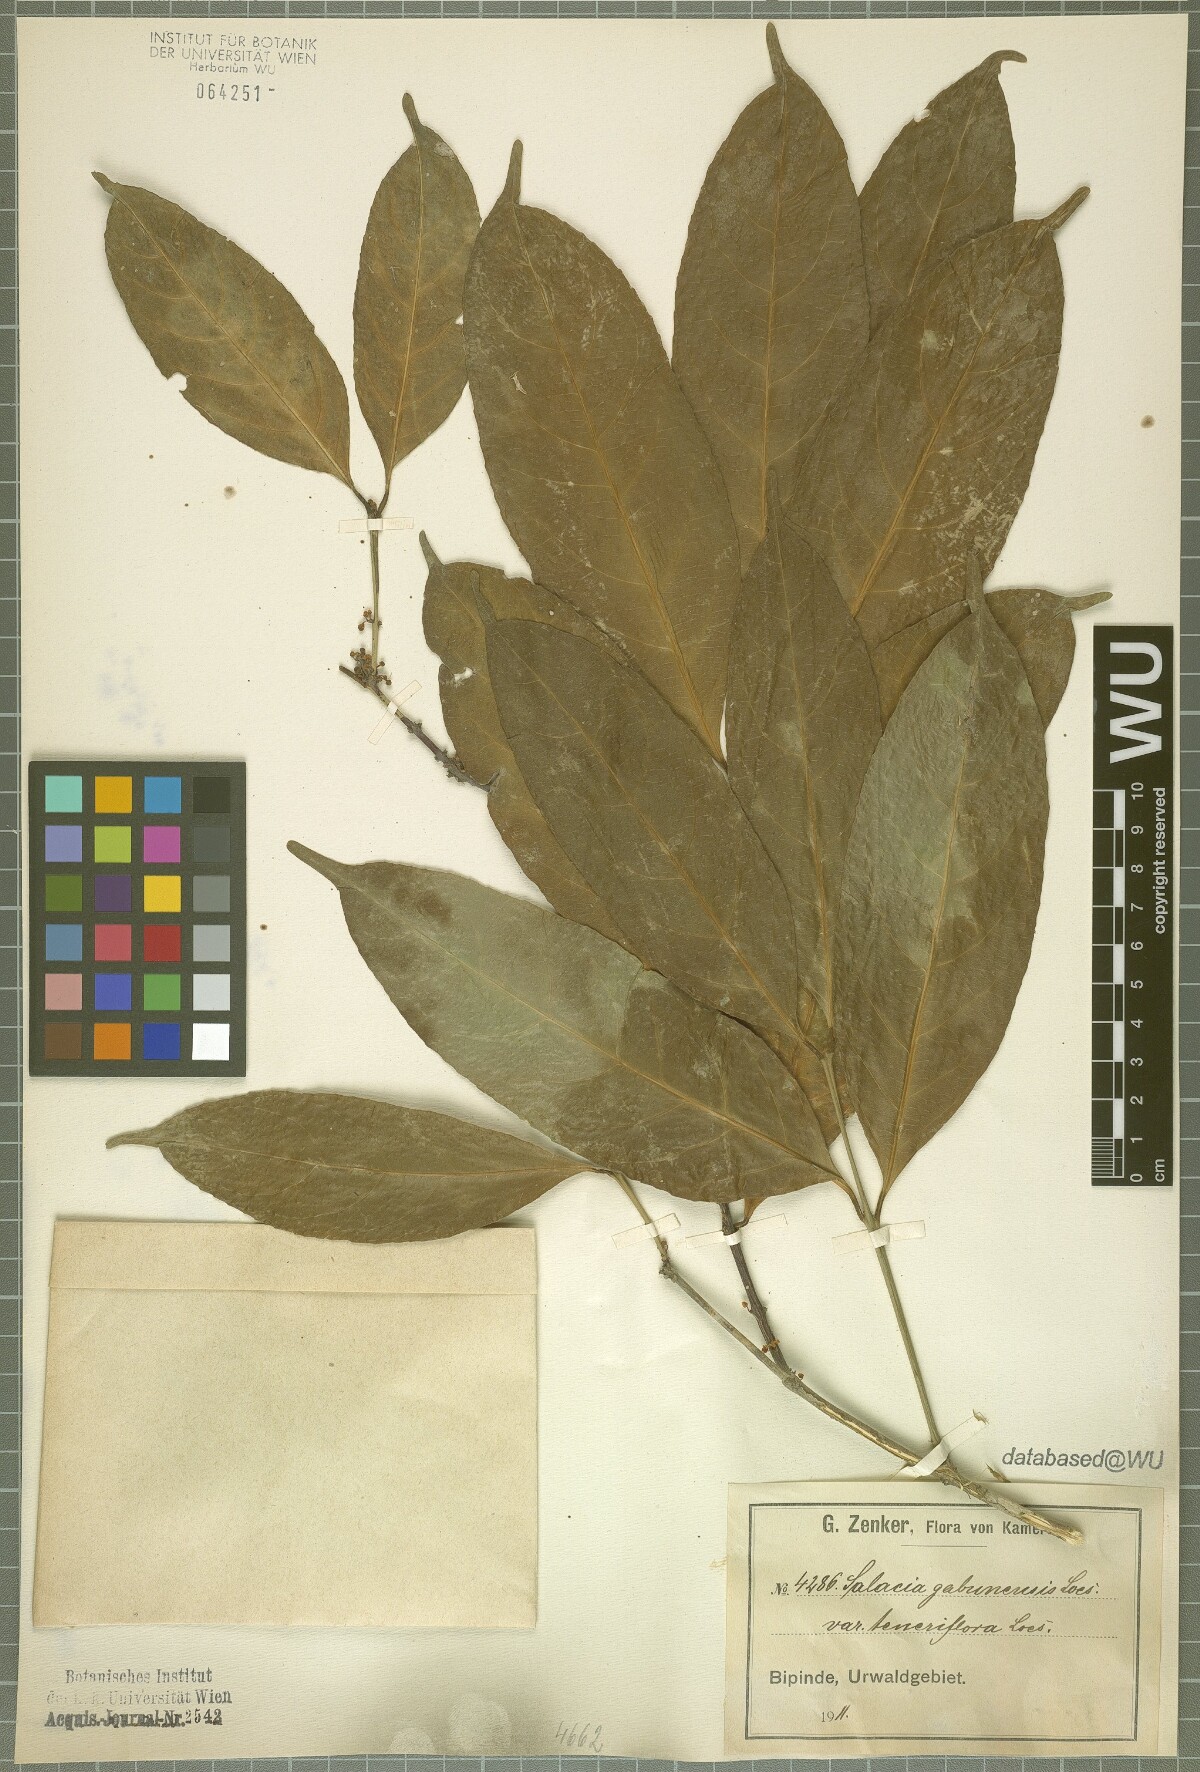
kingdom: Plantae
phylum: Tracheophyta
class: Magnoliopsida
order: Celastrales
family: Celastraceae
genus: Salacia
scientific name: Salacia gabunensis
